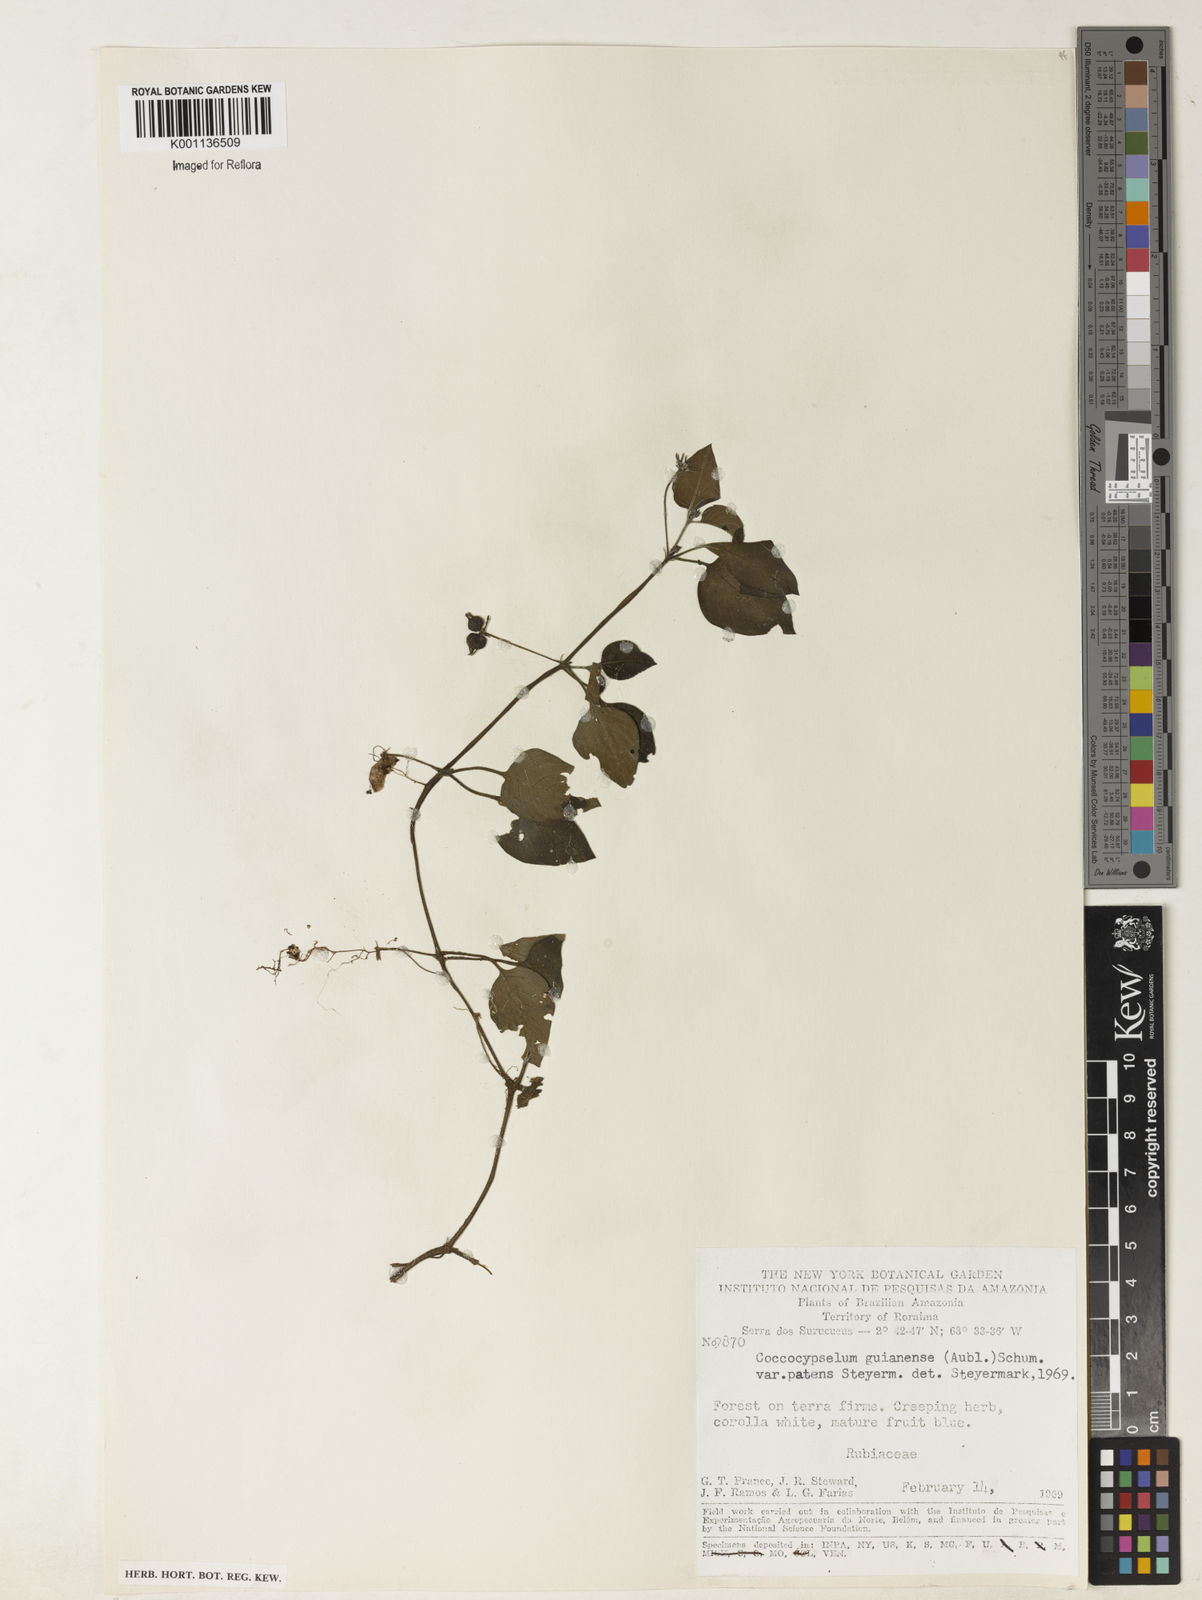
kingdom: Plantae
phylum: Tracheophyta
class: Magnoliopsida
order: Gentianales
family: Rubiaceae
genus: Coccocypselum
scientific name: Coccocypselum guianense
